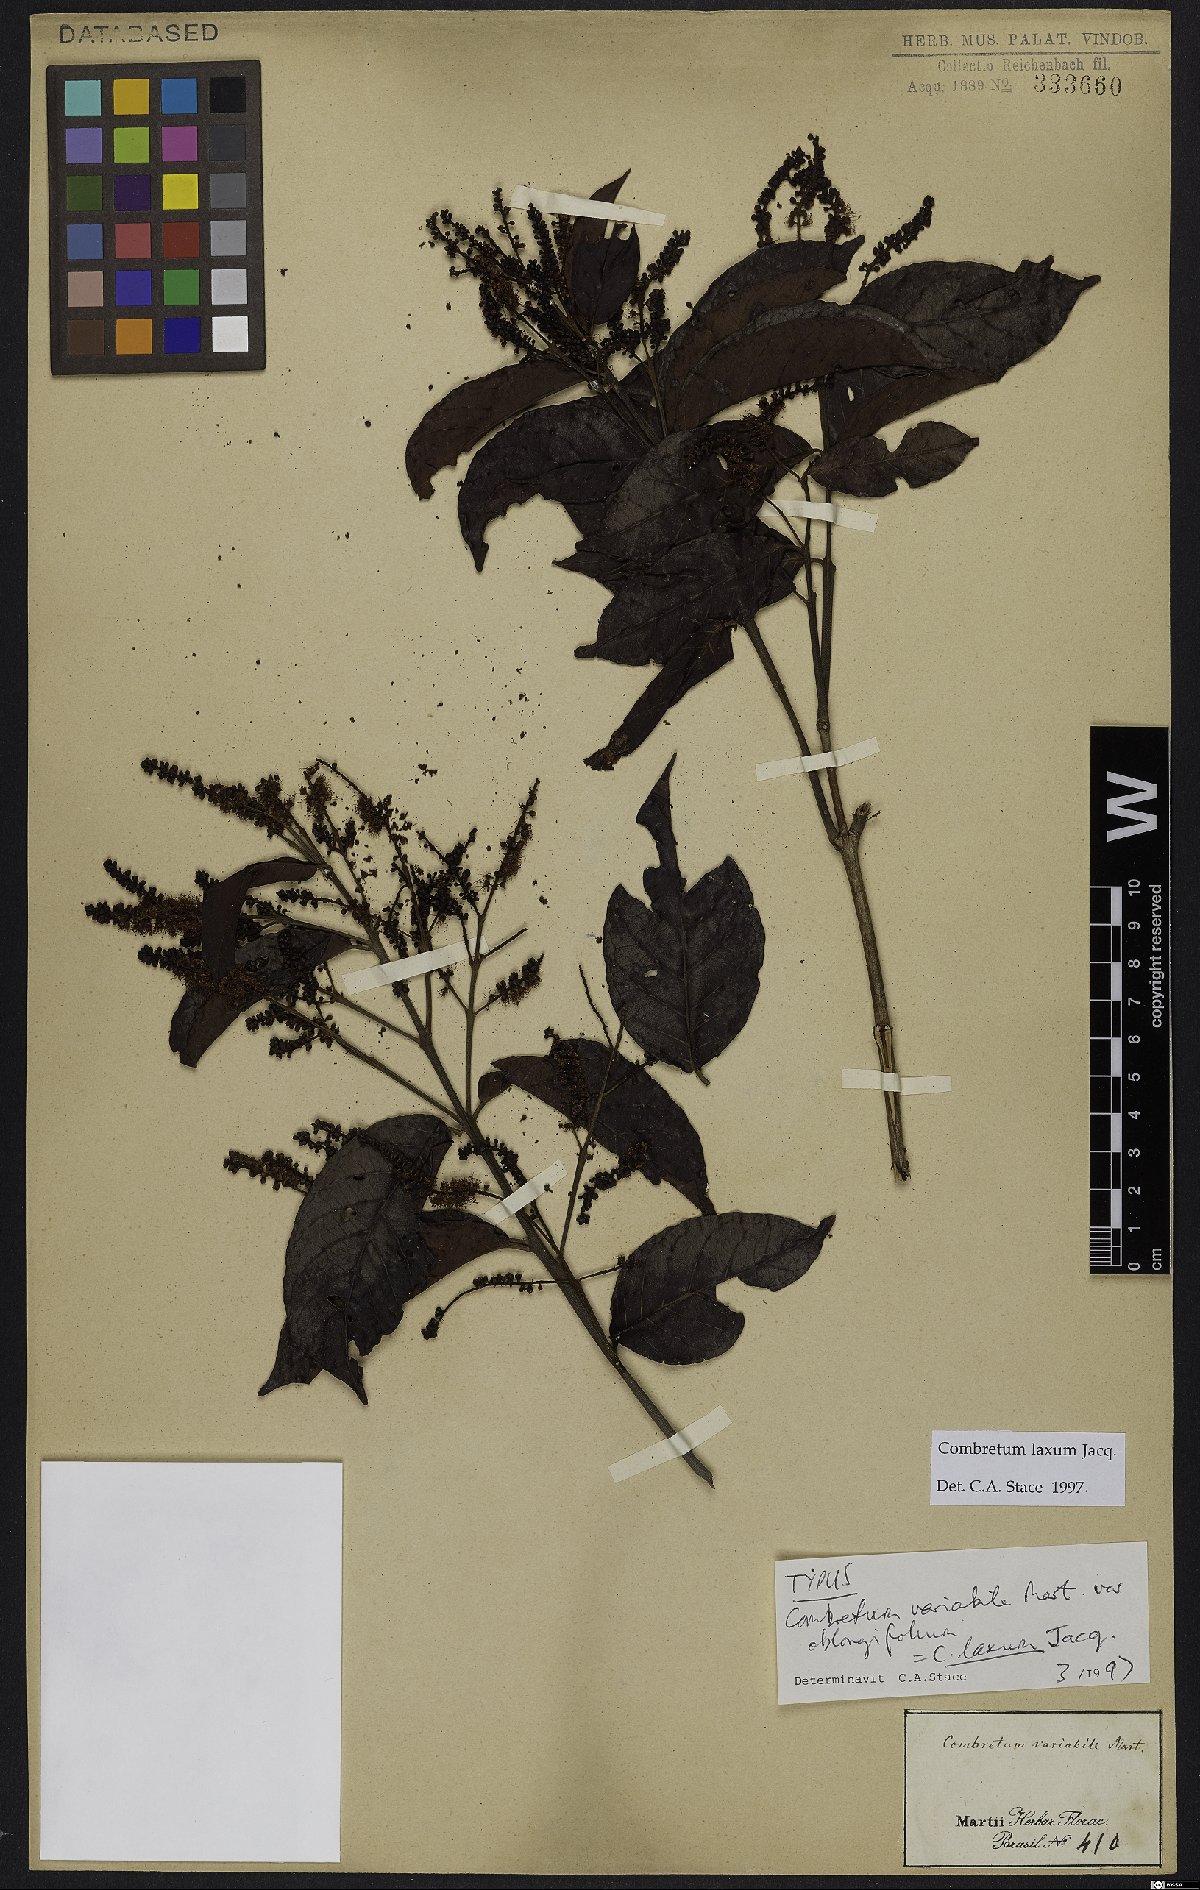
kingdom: Plantae
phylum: Tracheophyta
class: Magnoliopsida
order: Myrtales
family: Combretaceae
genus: Combretum
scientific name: Combretum laxum
